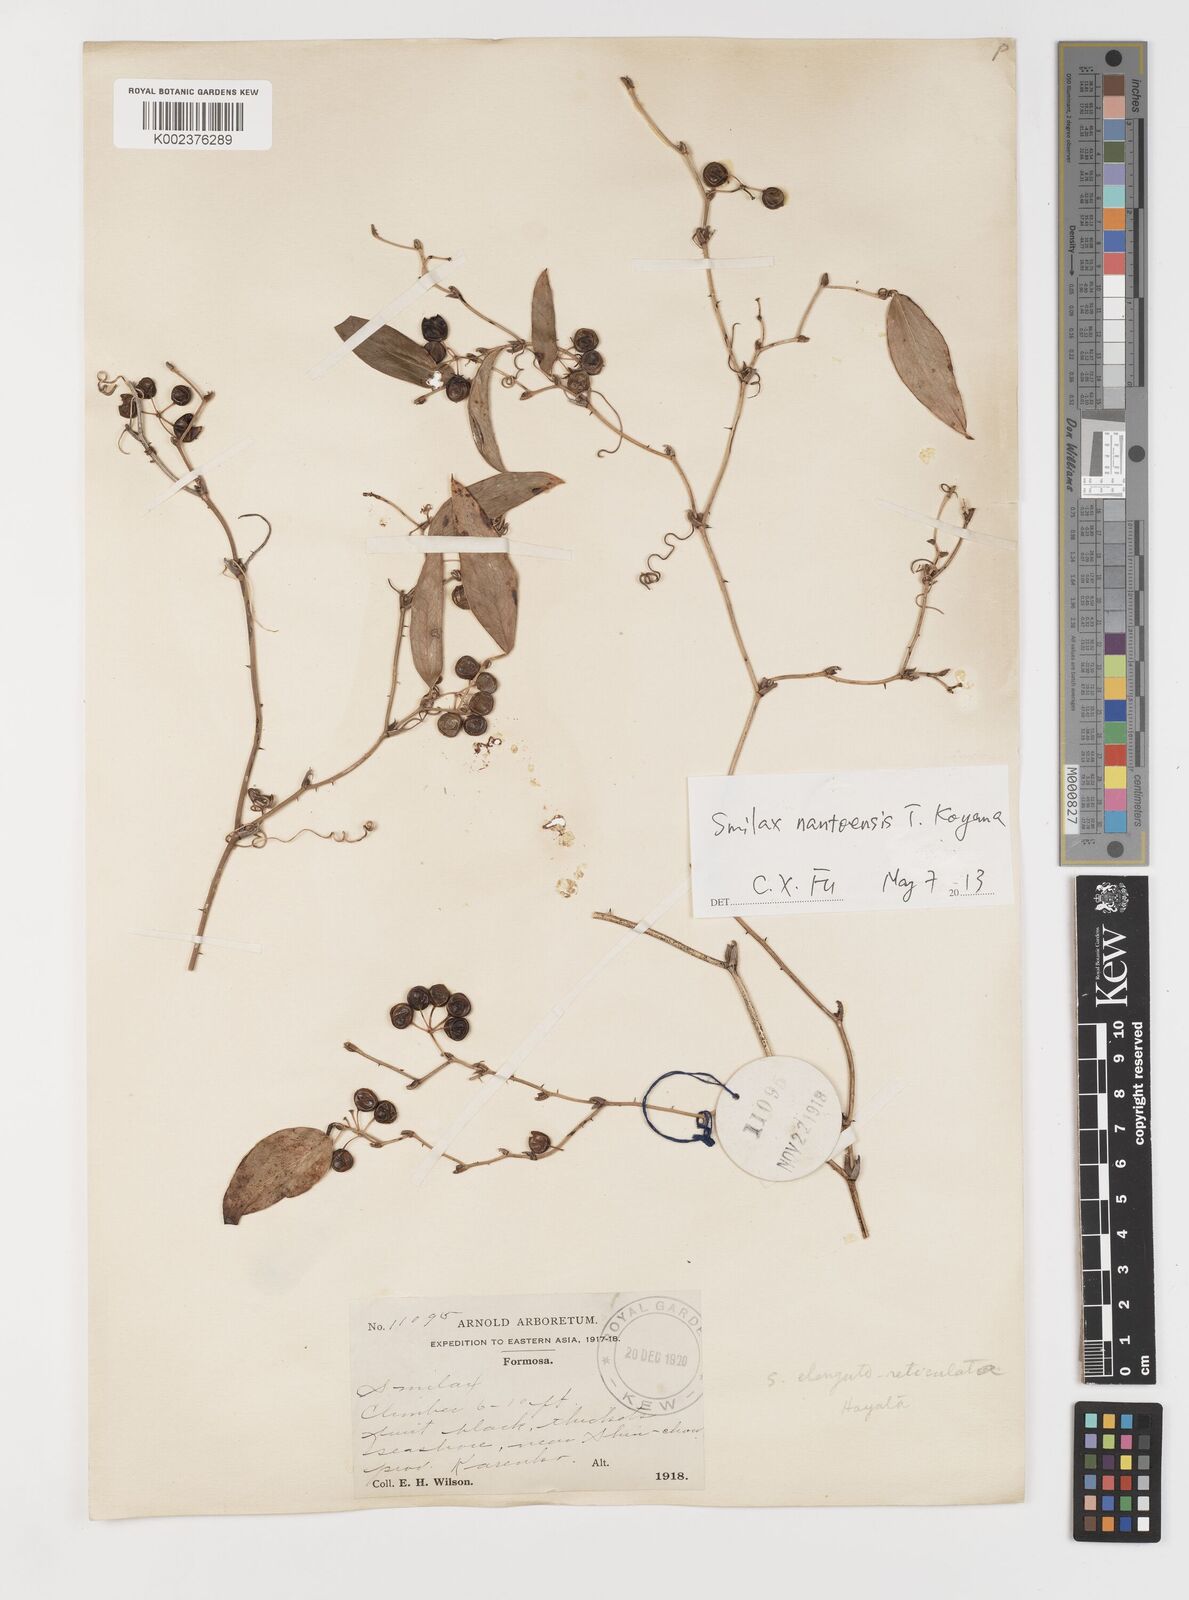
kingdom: Plantae
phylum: Tracheophyta
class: Liliopsida
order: Liliales
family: Smilacaceae
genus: Smilax
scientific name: Smilax nantoensis
